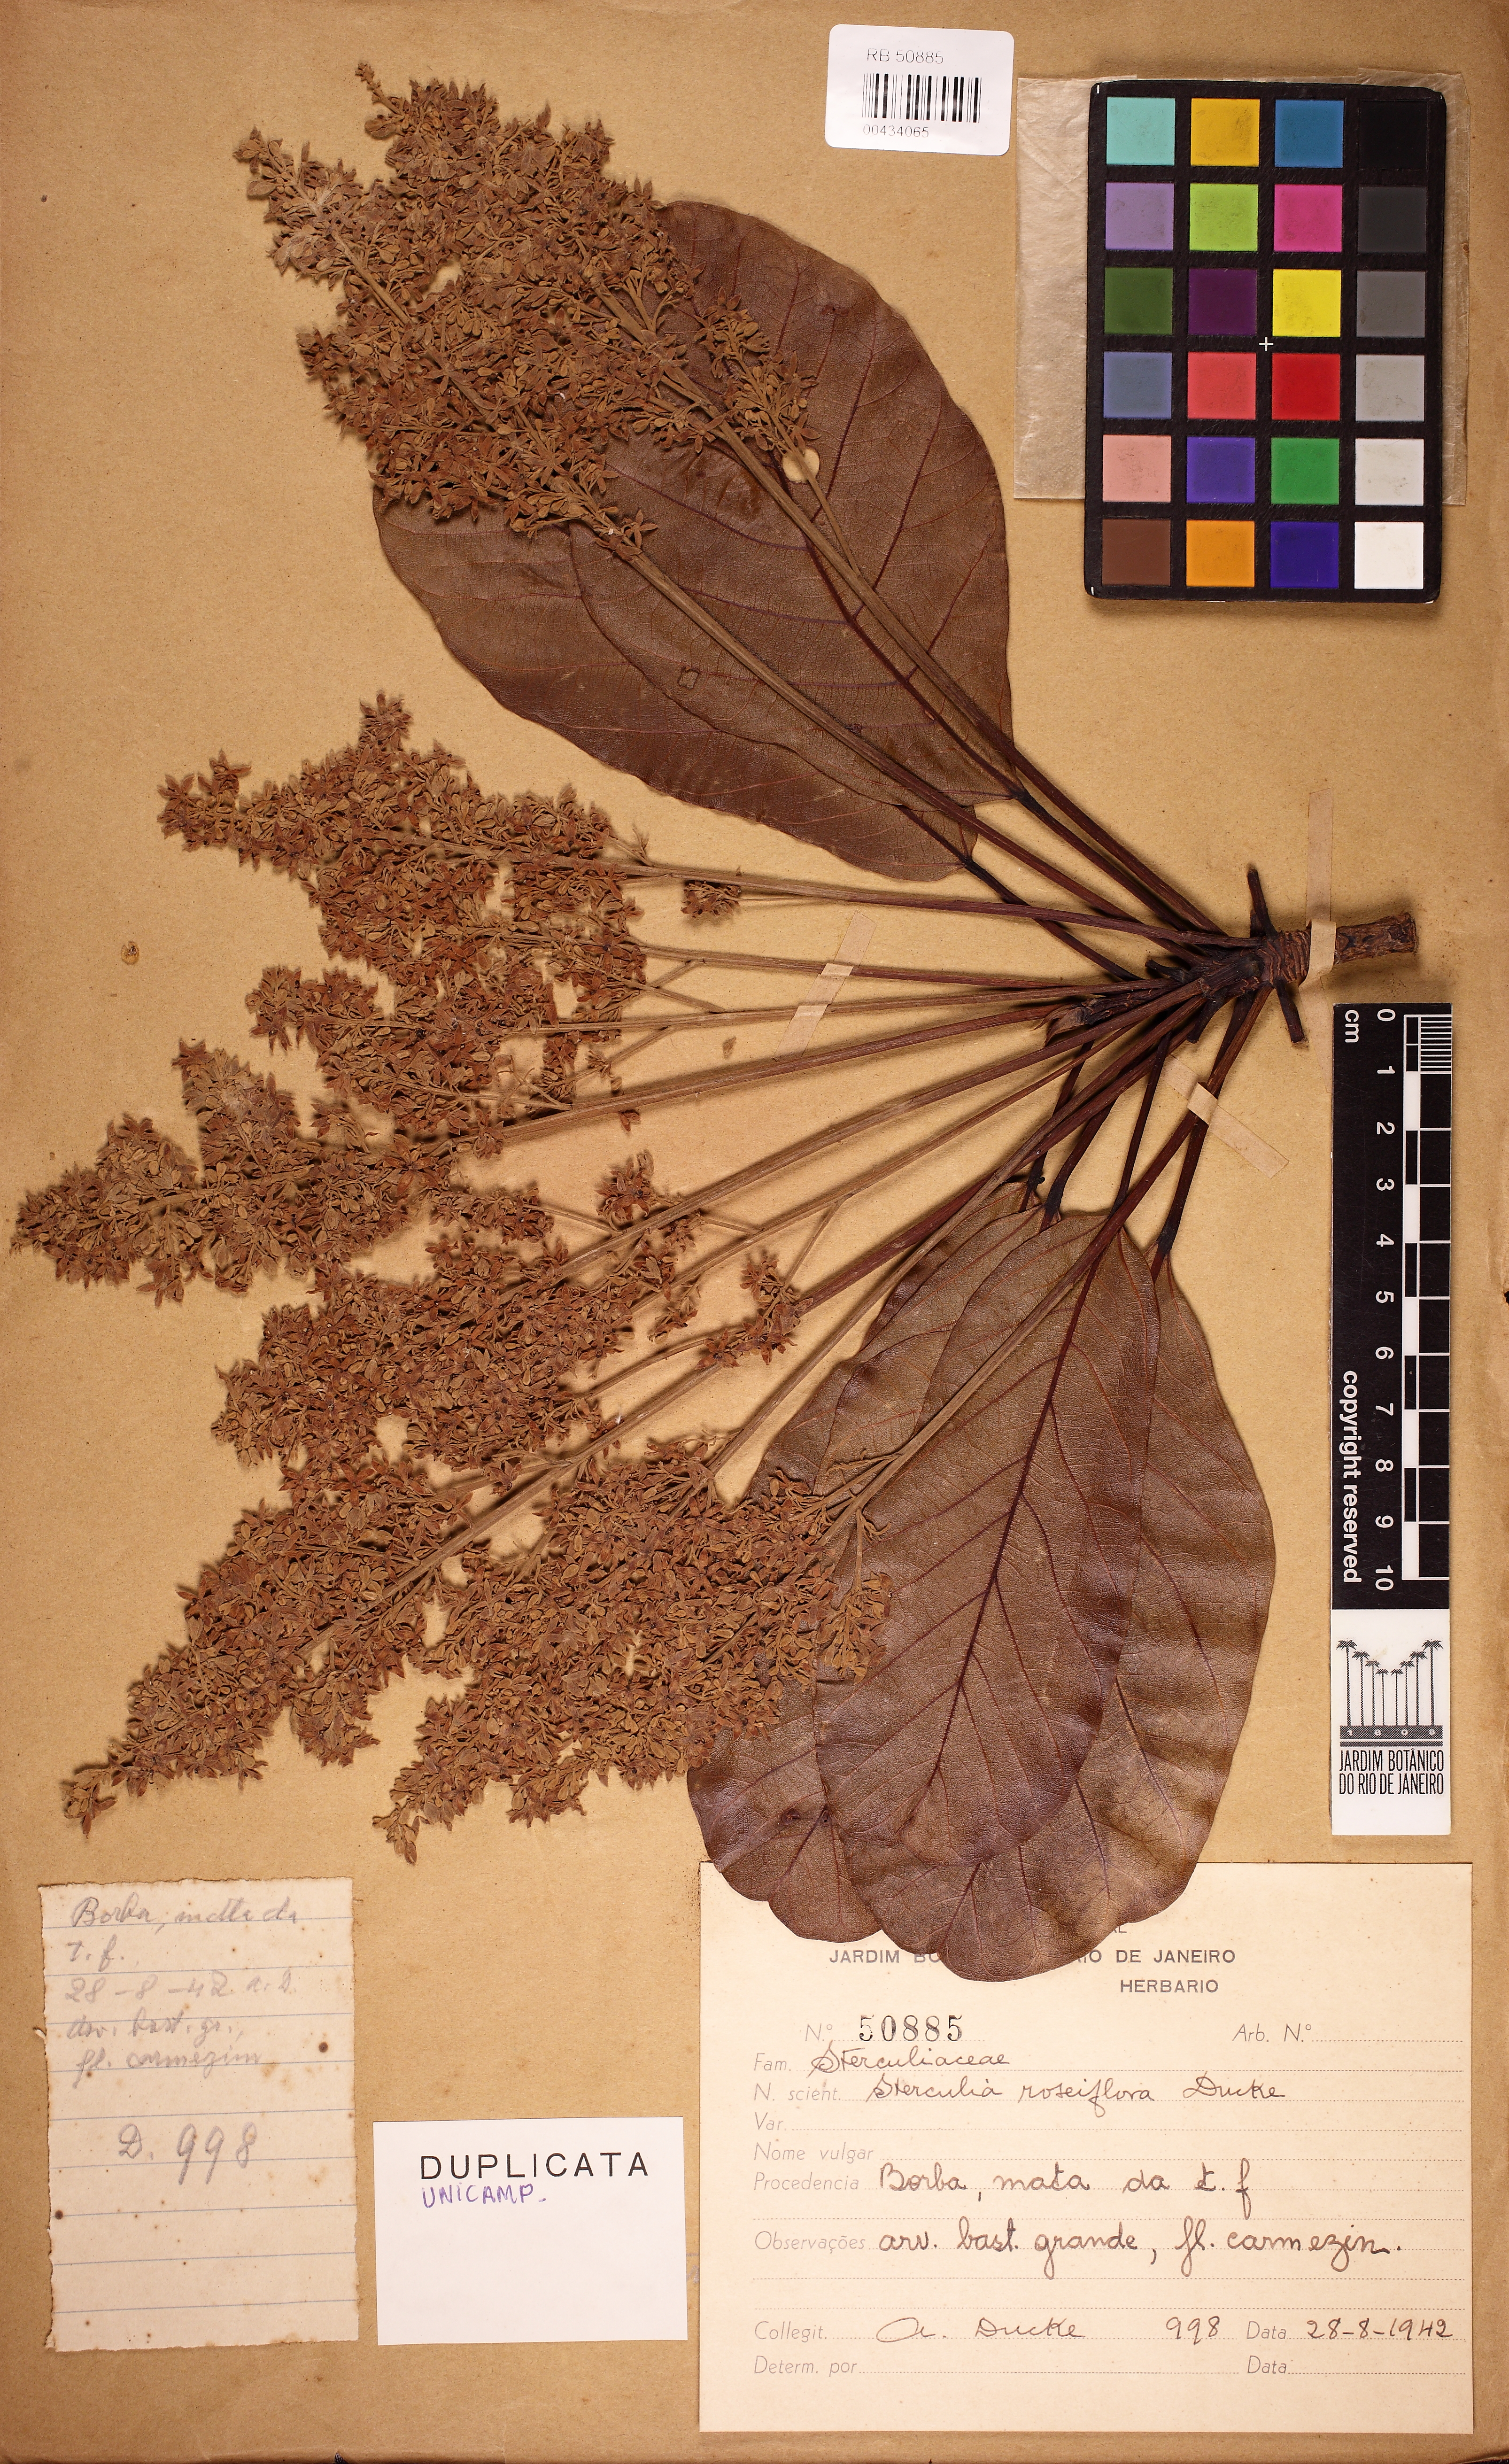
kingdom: Plantae
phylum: Tracheophyta
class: Magnoliopsida
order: Malvales
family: Malvaceae
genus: Sterculia
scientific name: Sterculia frondosa
